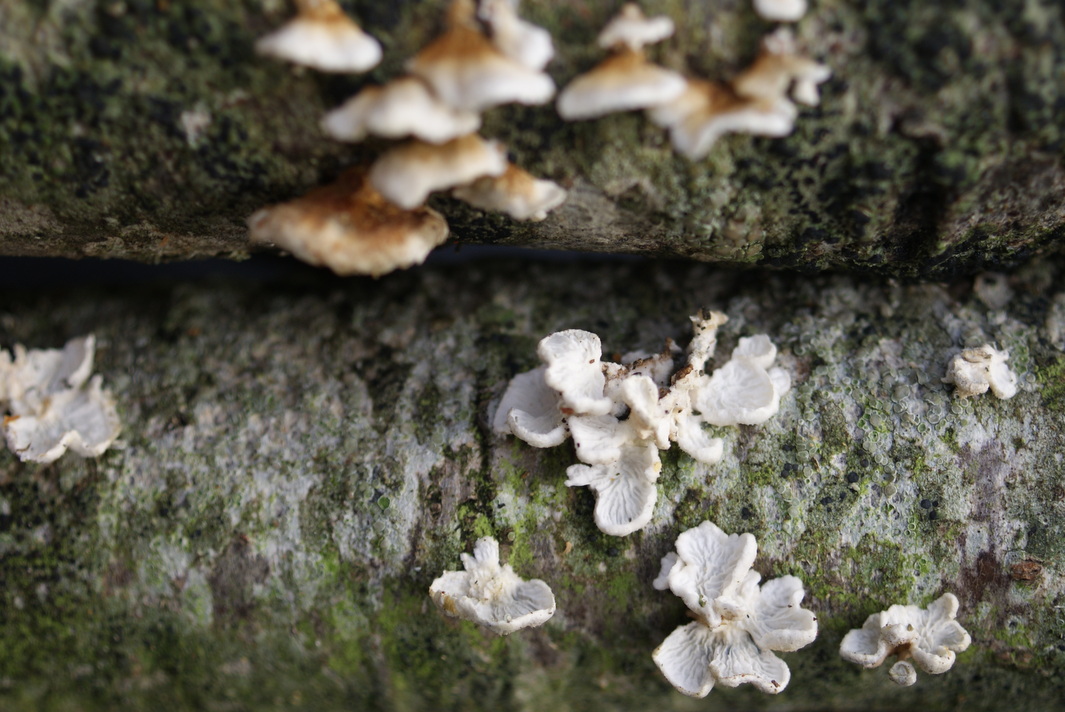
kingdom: Fungi
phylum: Basidiomycota
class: Agaricomycetes
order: Amylocorticiales
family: Amylocorticiaceae
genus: Plicaturopsis
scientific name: Plicaturopsis crispa
